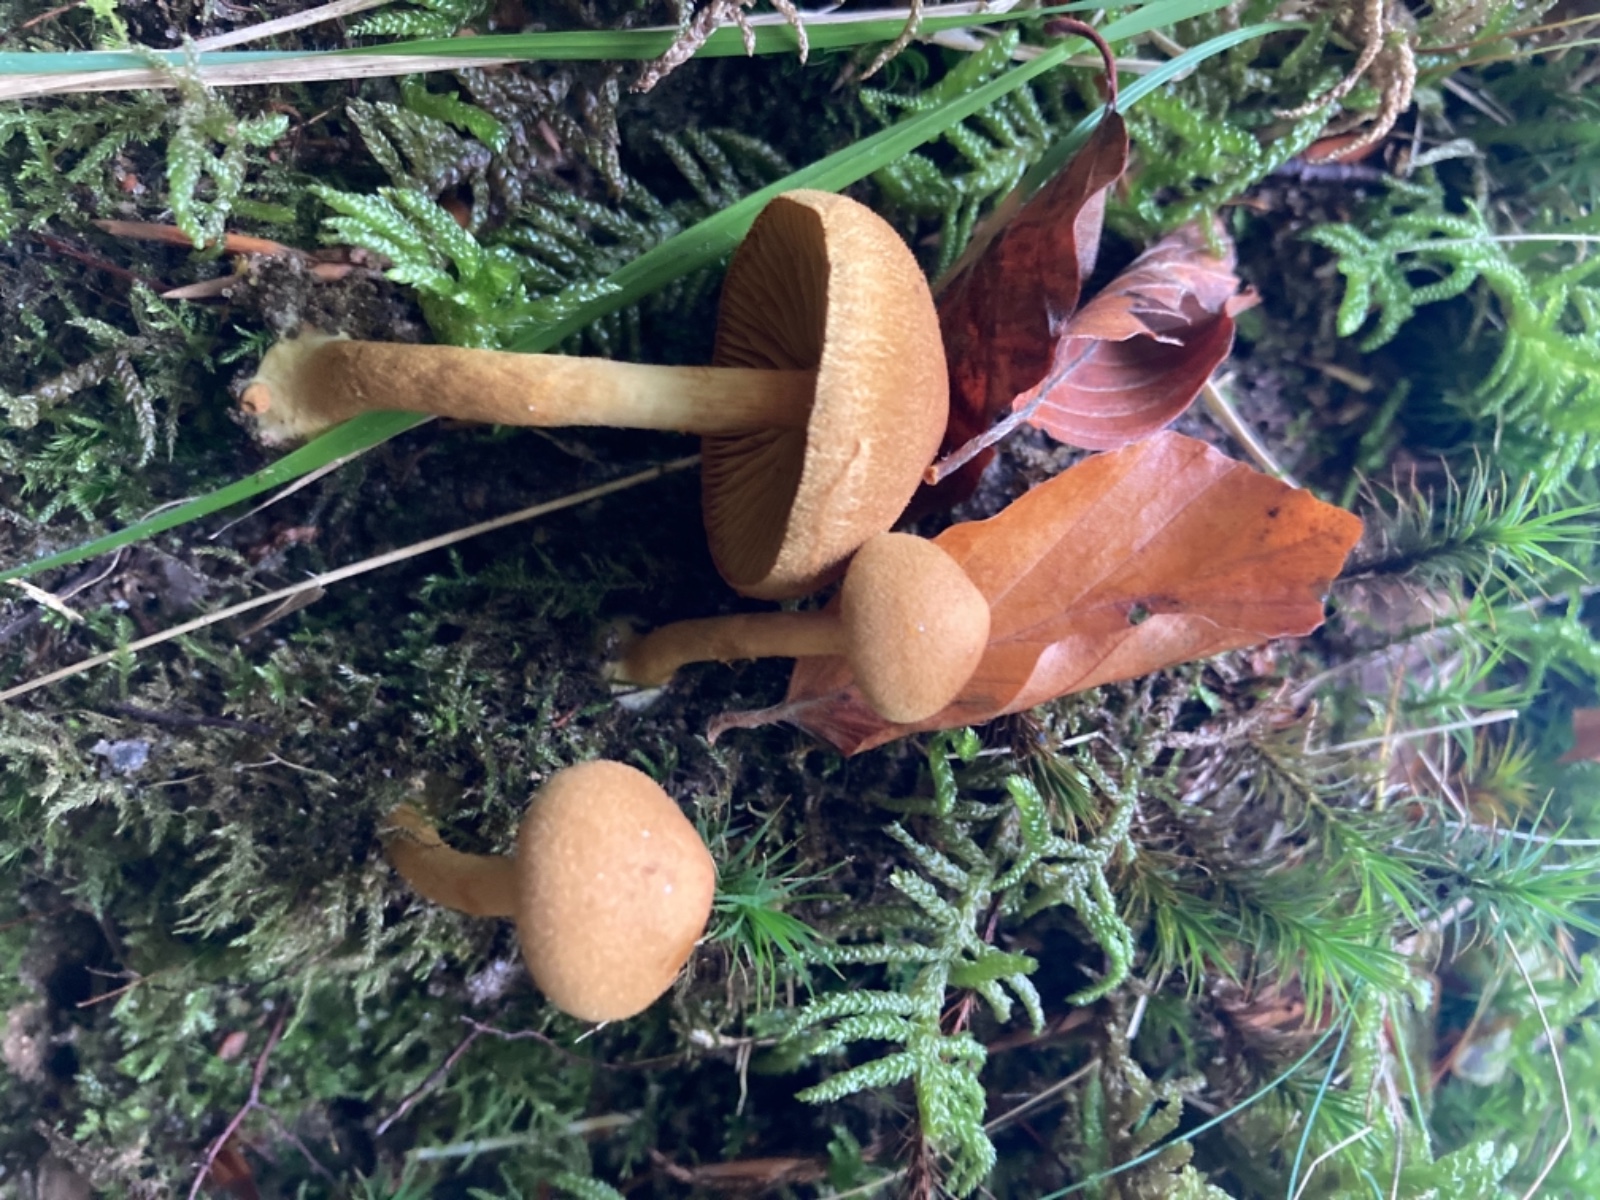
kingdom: Fungi
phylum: Basidiomycota
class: Agaricomycetes
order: Agaricales
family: Cortinariaceae
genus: Cortinarius
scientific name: Cortinarius croceus
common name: Saffron webcap
